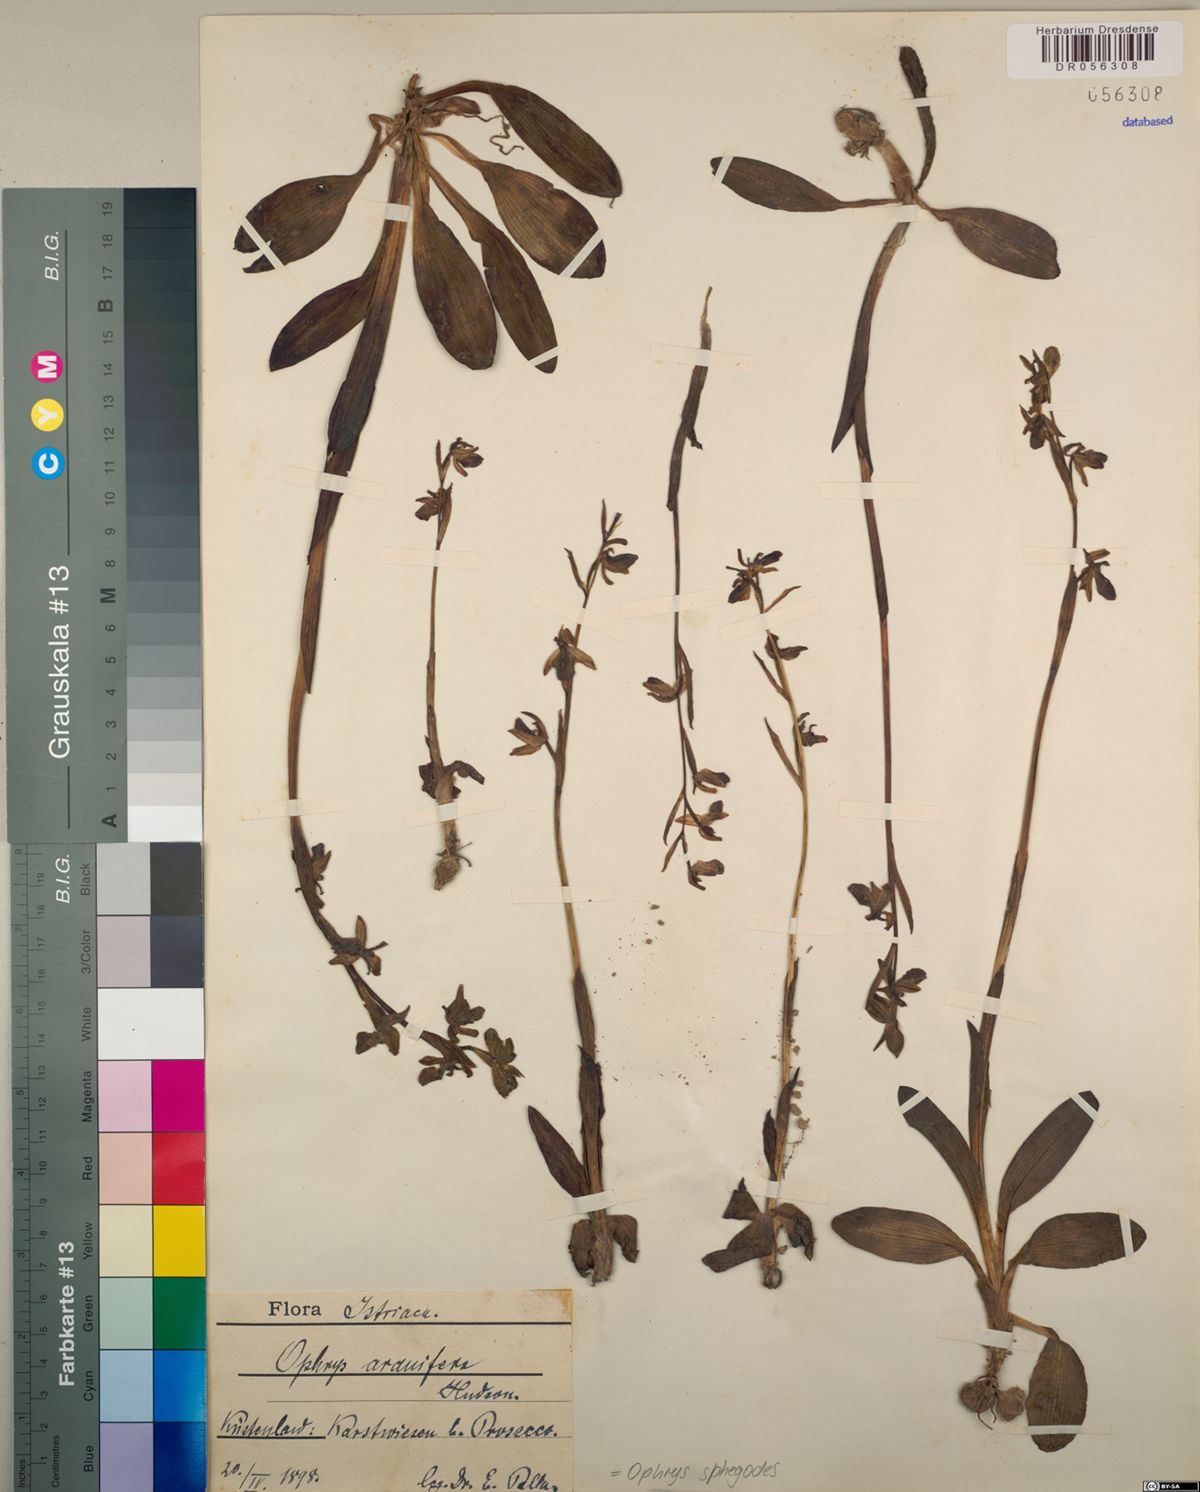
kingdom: Plantae
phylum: Tracheophyta
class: Liliopsida
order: Asparagales
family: Orchidaceae
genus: Ophrys
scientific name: Ophrys sphegodes
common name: Early spider-orchid
